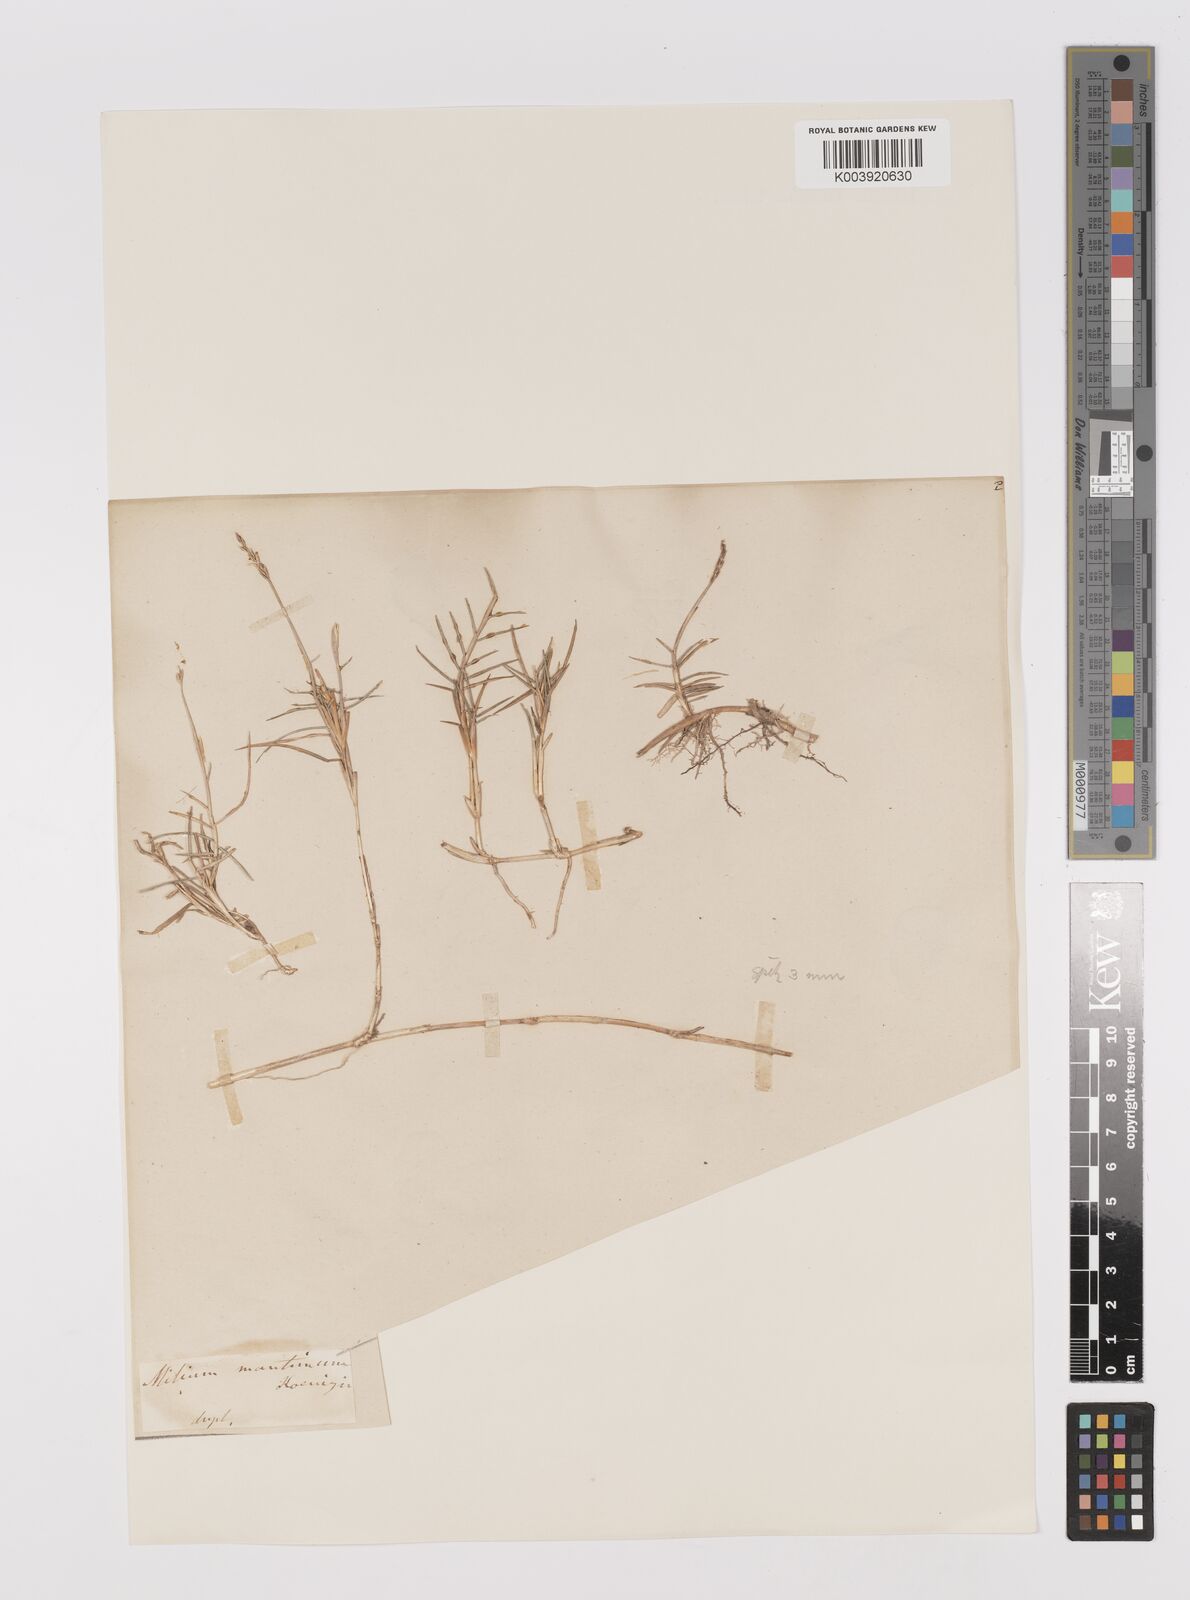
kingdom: Plantae
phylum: Tracheophyta
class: Liliopsida
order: Poales
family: Poaceae
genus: Zoysia
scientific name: Zoysia matrella
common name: Manila grass
